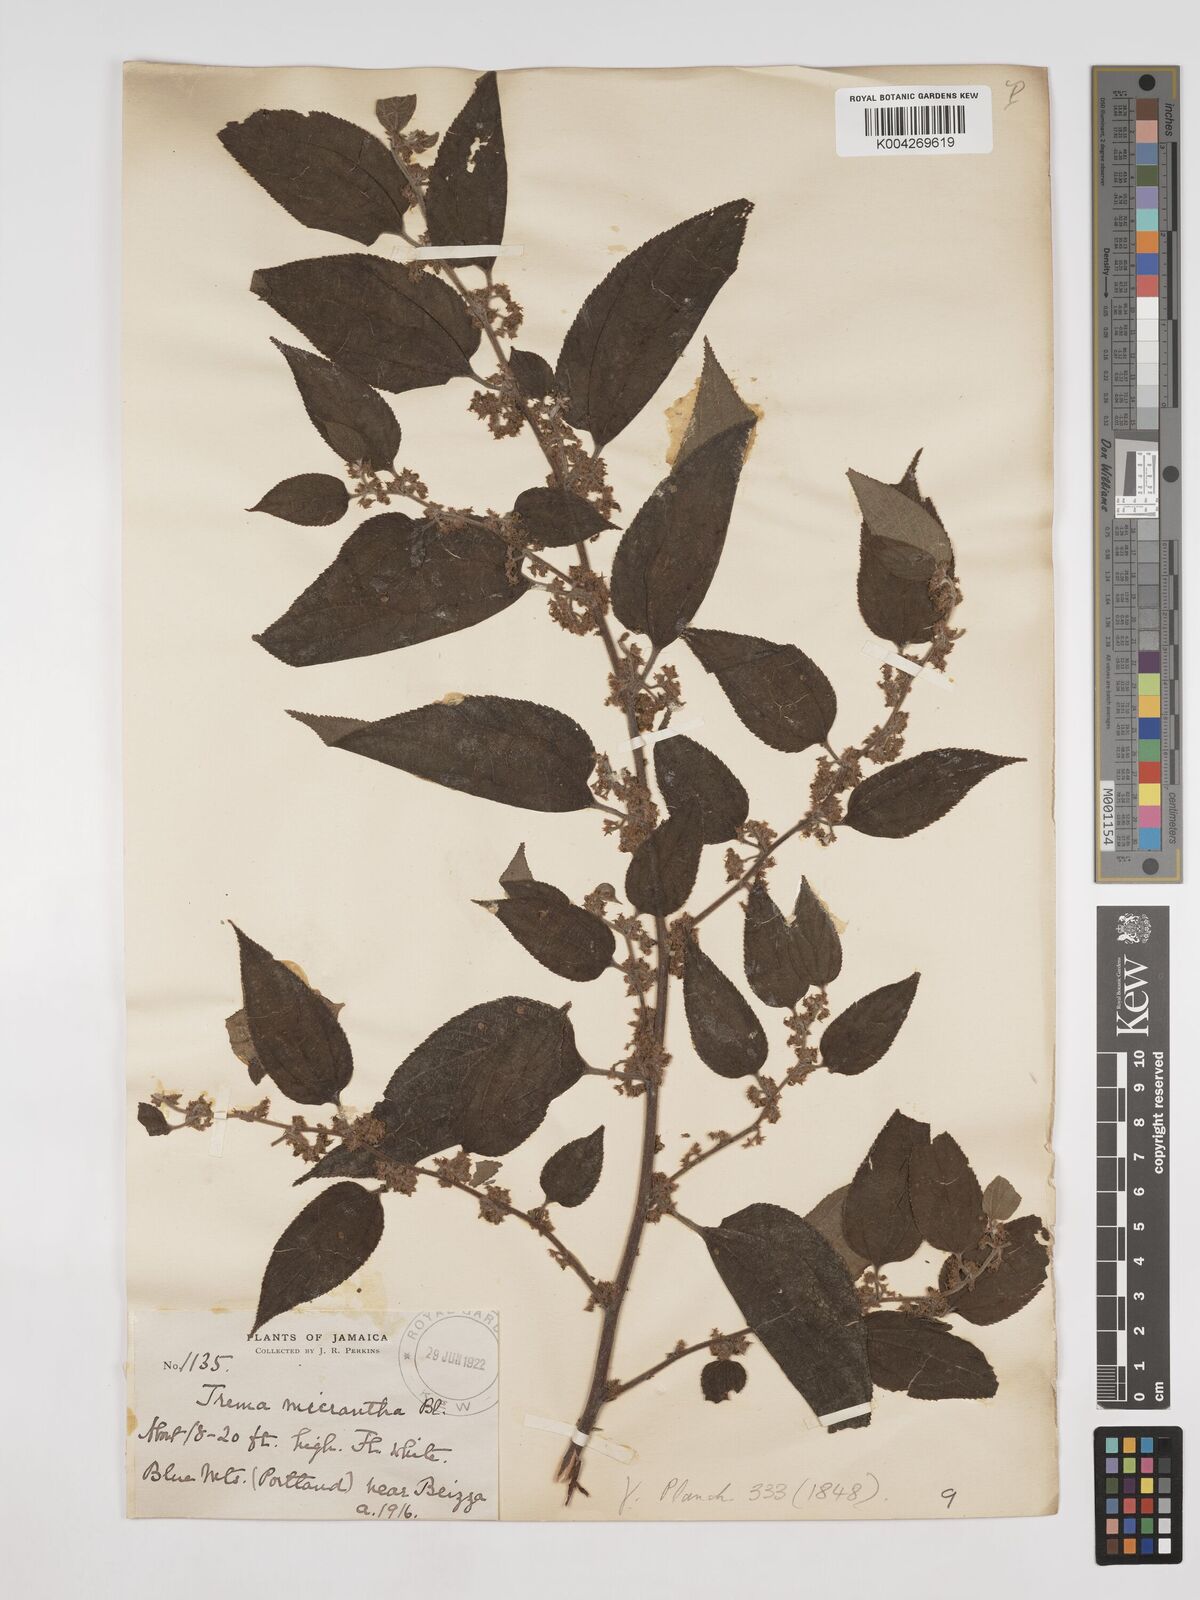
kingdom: Plantae
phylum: Tracheophyta
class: Magnoliopsida
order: Rosales
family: Cannabaceae
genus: Trema
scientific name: Trema micranthum
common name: Jamaican nettletree
